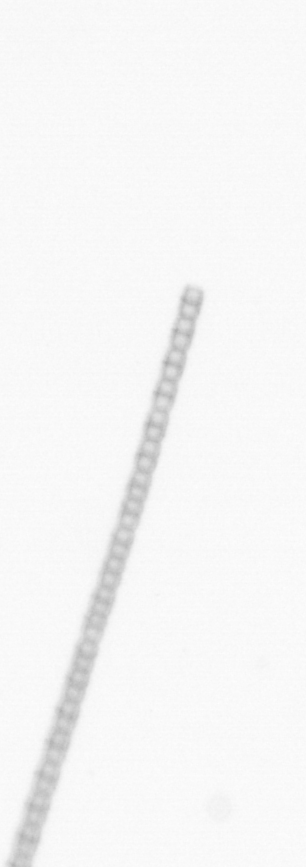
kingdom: Chromista
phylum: Ochrophyta
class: Bacillariophyceae
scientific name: Bacillariophyceae
